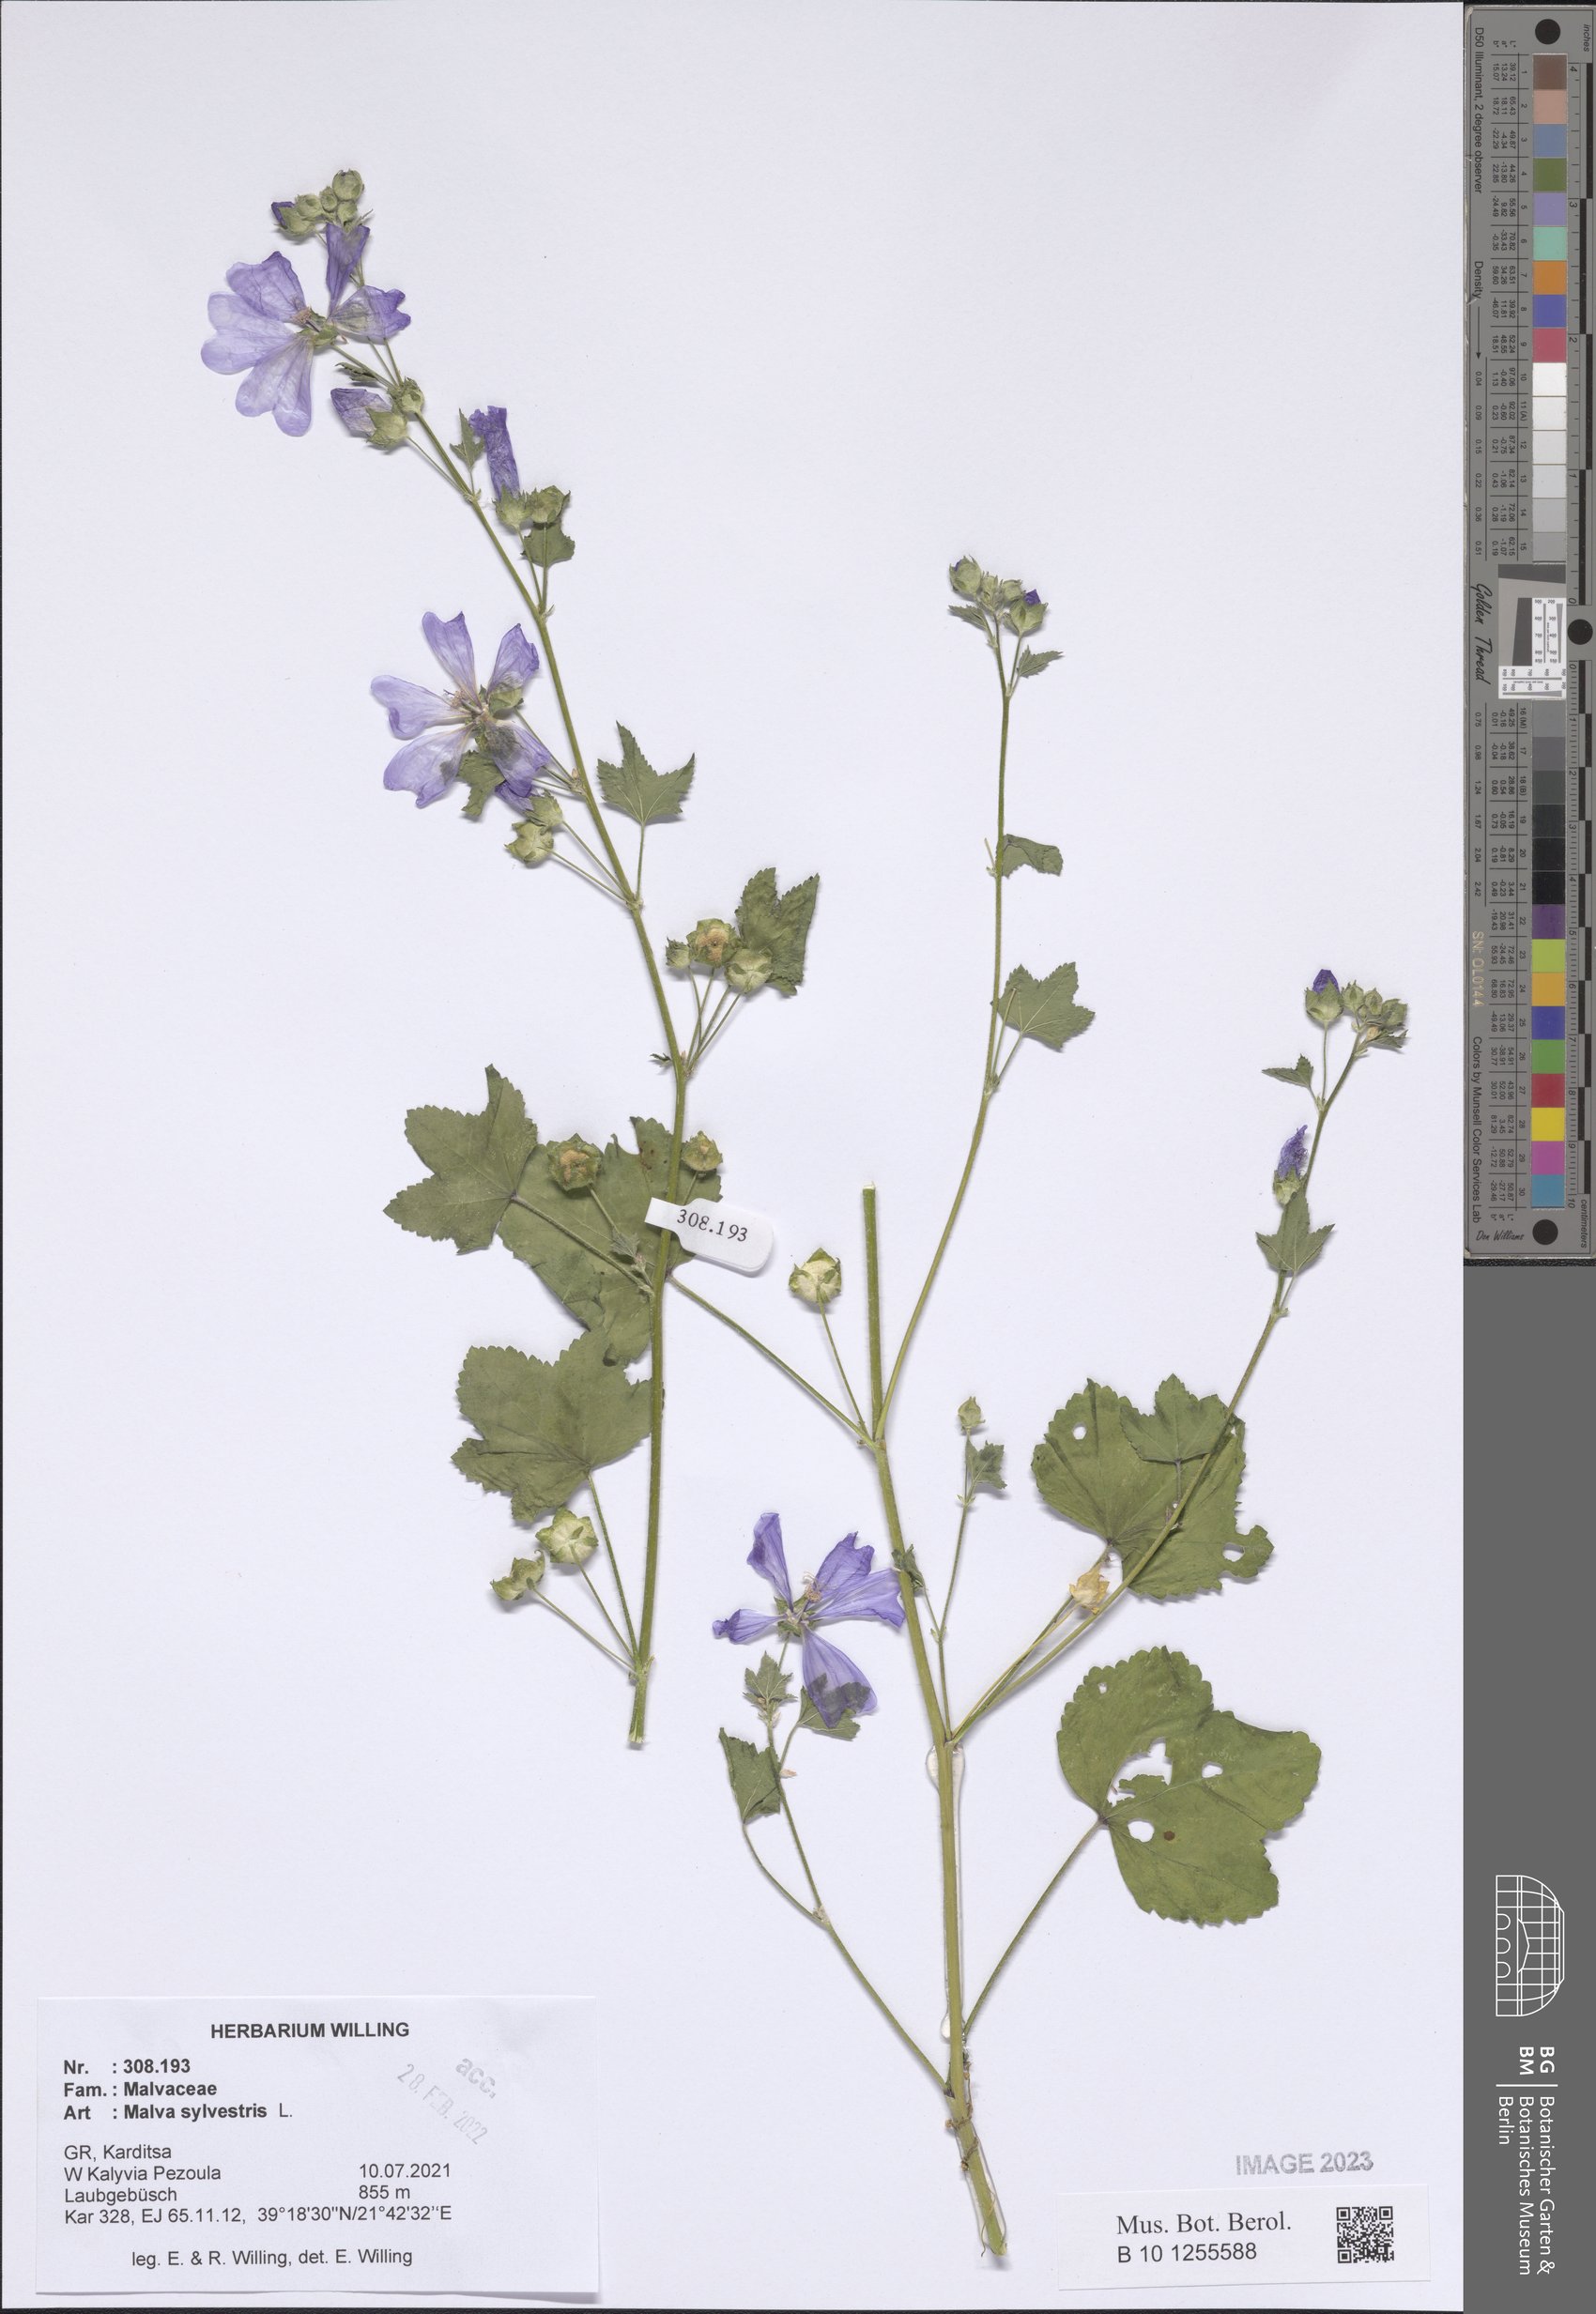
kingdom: Plantae
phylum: Tracheophyta
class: Magnoliopsida
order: Malvales
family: Malvaceae
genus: Malva
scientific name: Malva sylvestris
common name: Common mallow
